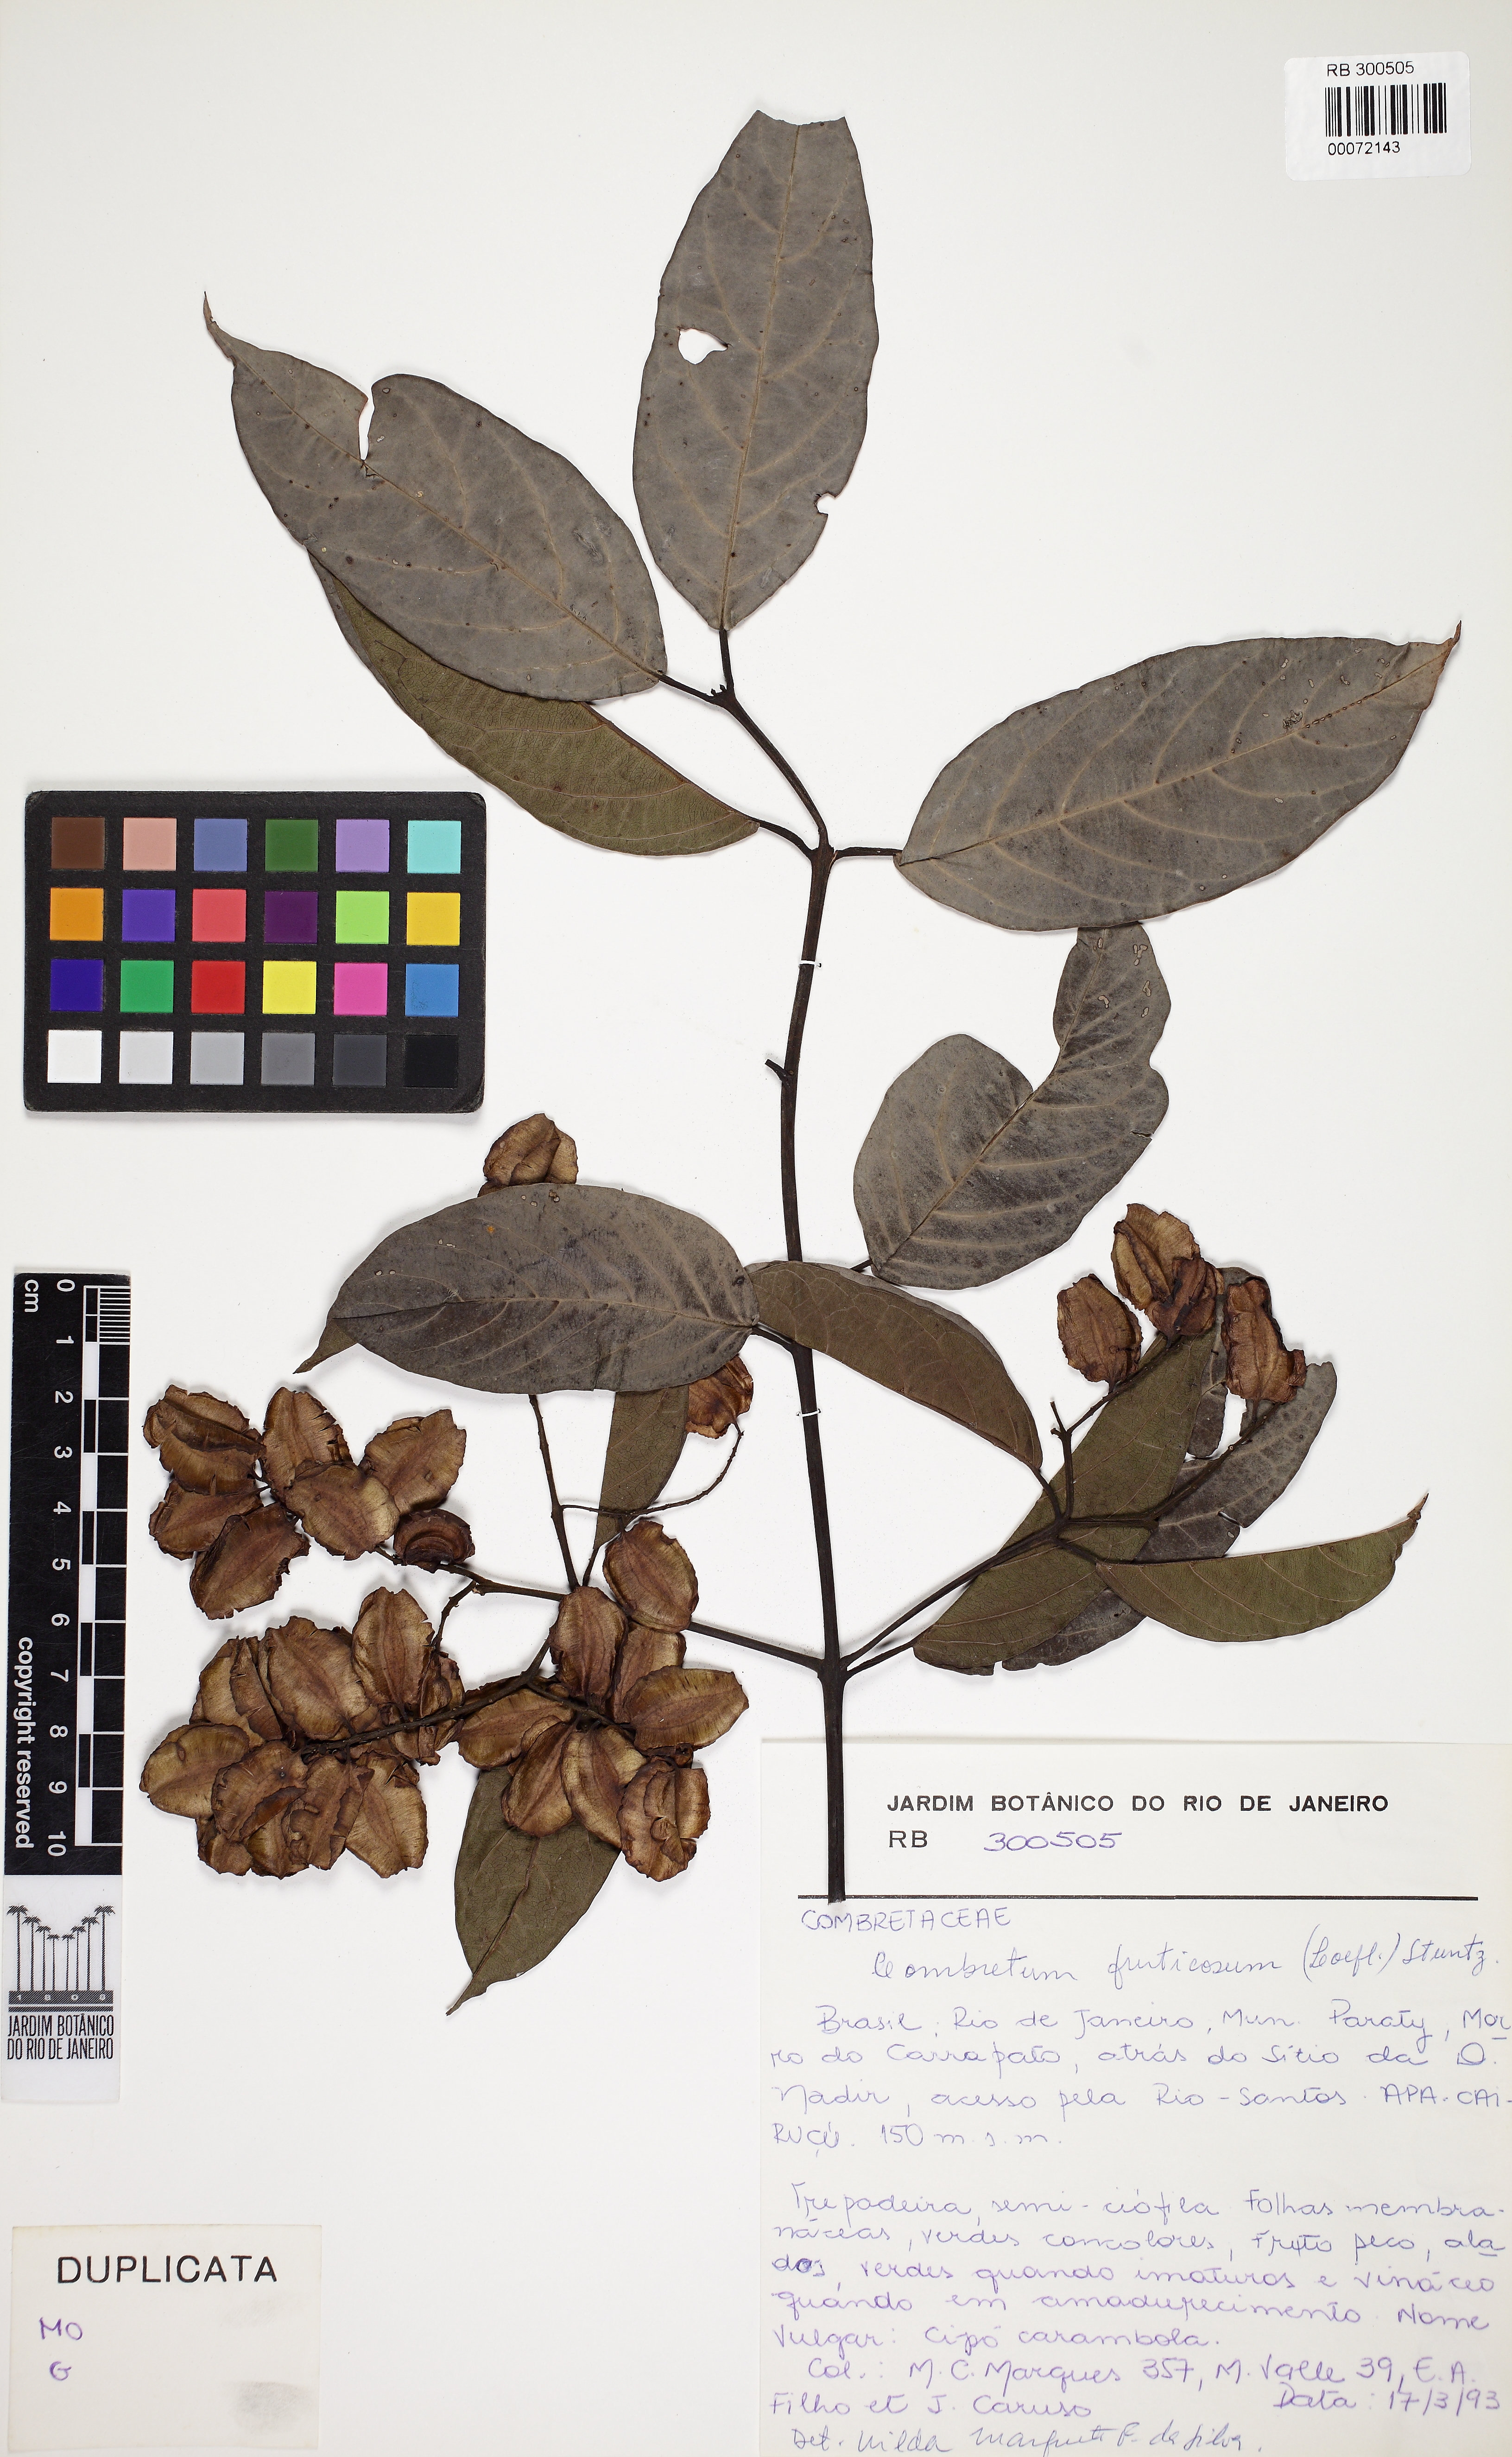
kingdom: Plantae
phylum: Tracheophyta
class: Magnoliopsida
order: Myrtales
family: Combretaceae
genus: Combretum
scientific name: Combretum fruticosum
